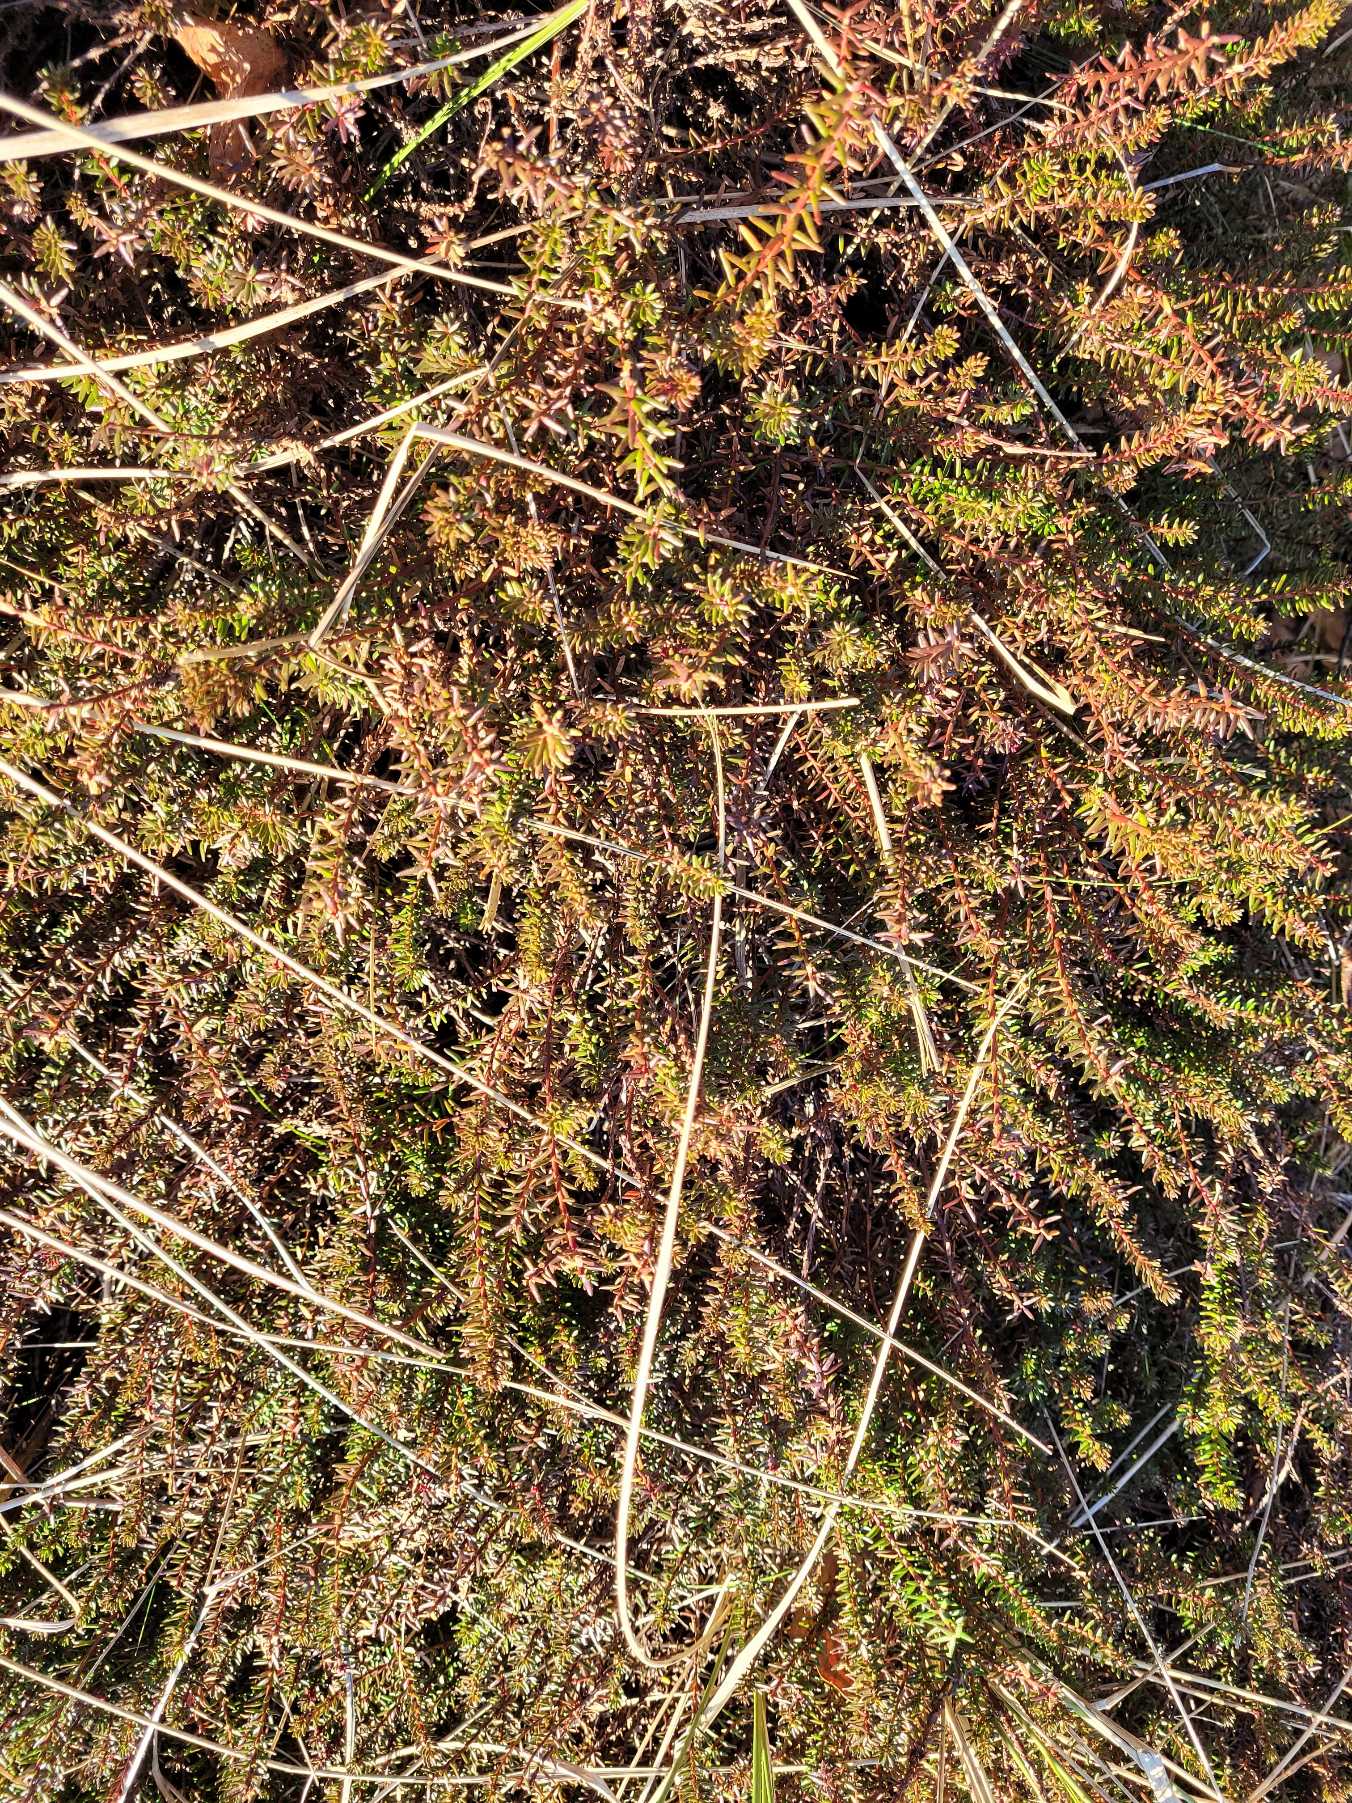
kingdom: Plantae
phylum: Tracheophyta
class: Magnoliopsida
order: Ericales
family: Ericaceae
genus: Empetrum
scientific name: Empetrum nigrum
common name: Revling
